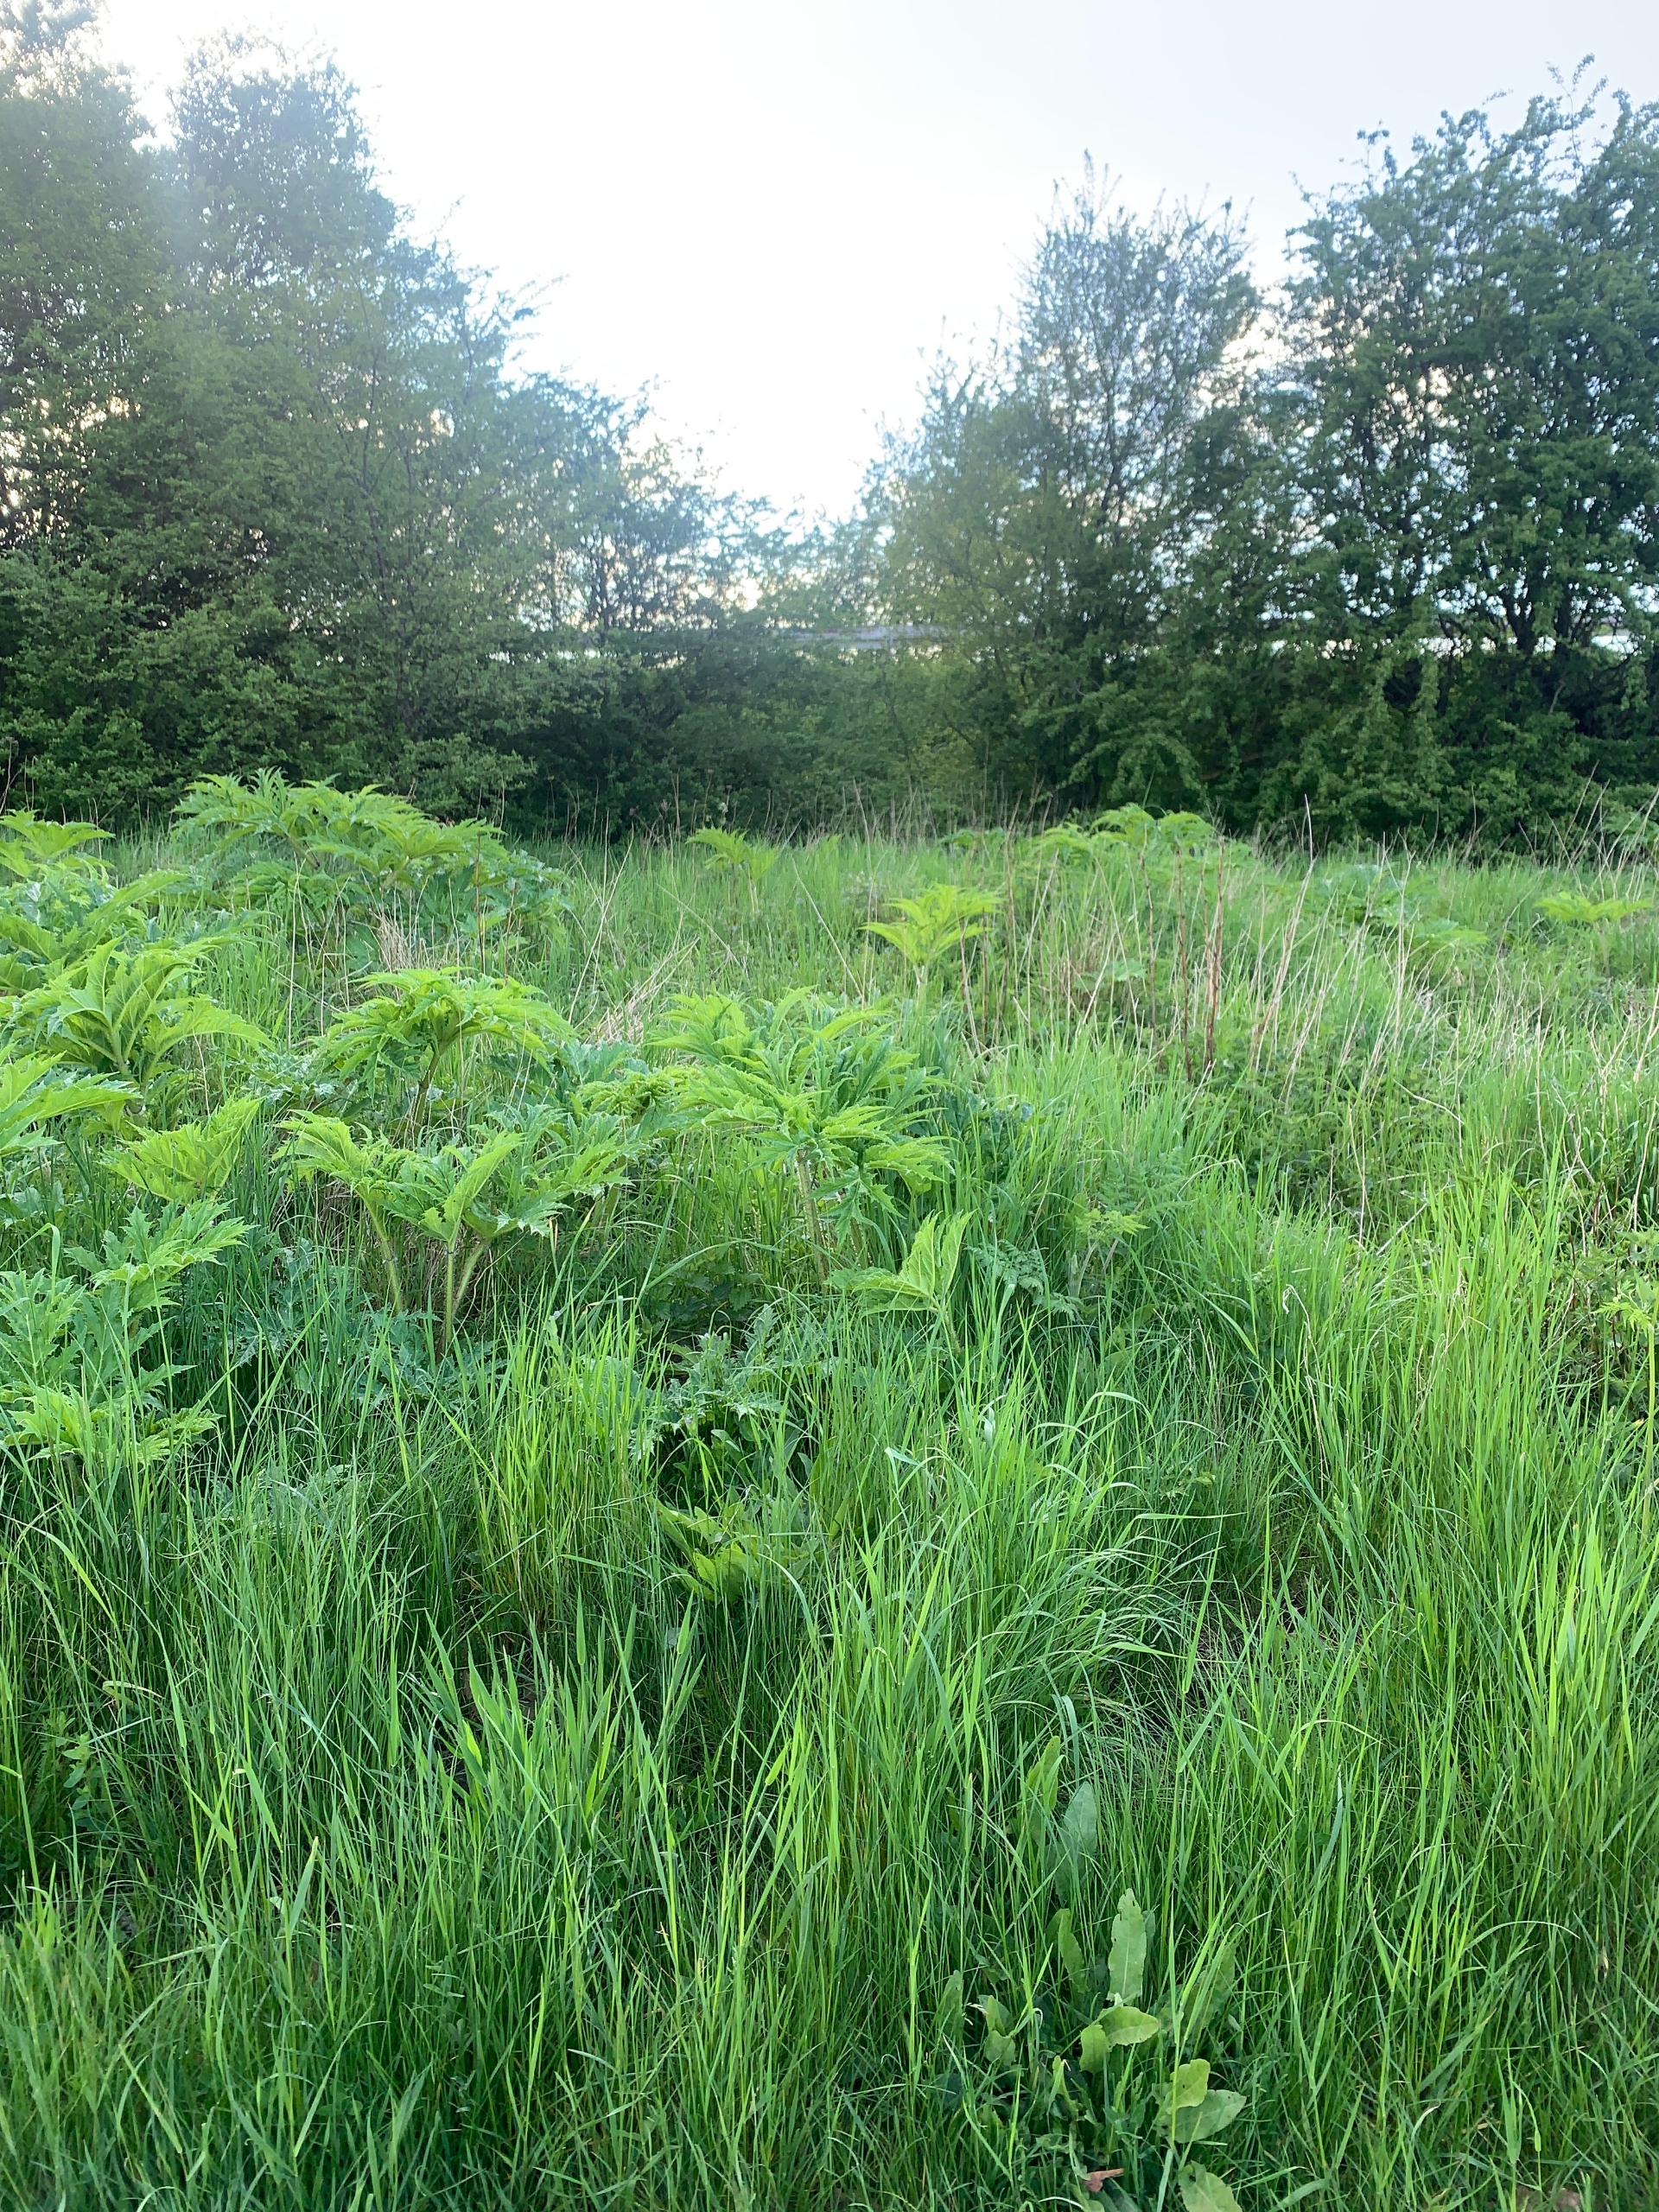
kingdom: Plantae
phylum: Tracheophyta
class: Magnoliopsida
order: Apiales
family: Apiaceae
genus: Heracleum
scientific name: Heracleum mantegazzianum
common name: Kæmpe-bjørneklo
